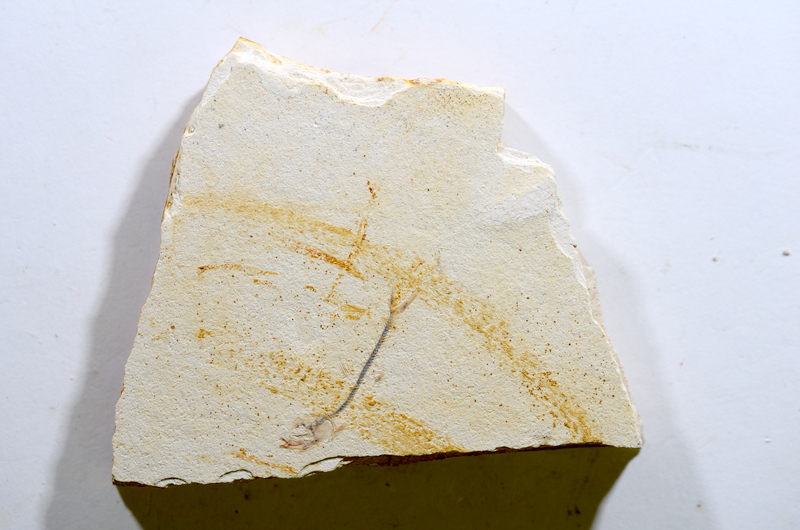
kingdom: Animalia
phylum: Chordata
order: Salmoniformes
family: Orthogonikleithridae
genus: Orthogonikleithrus
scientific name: Orthogonikleithrus hoelli
